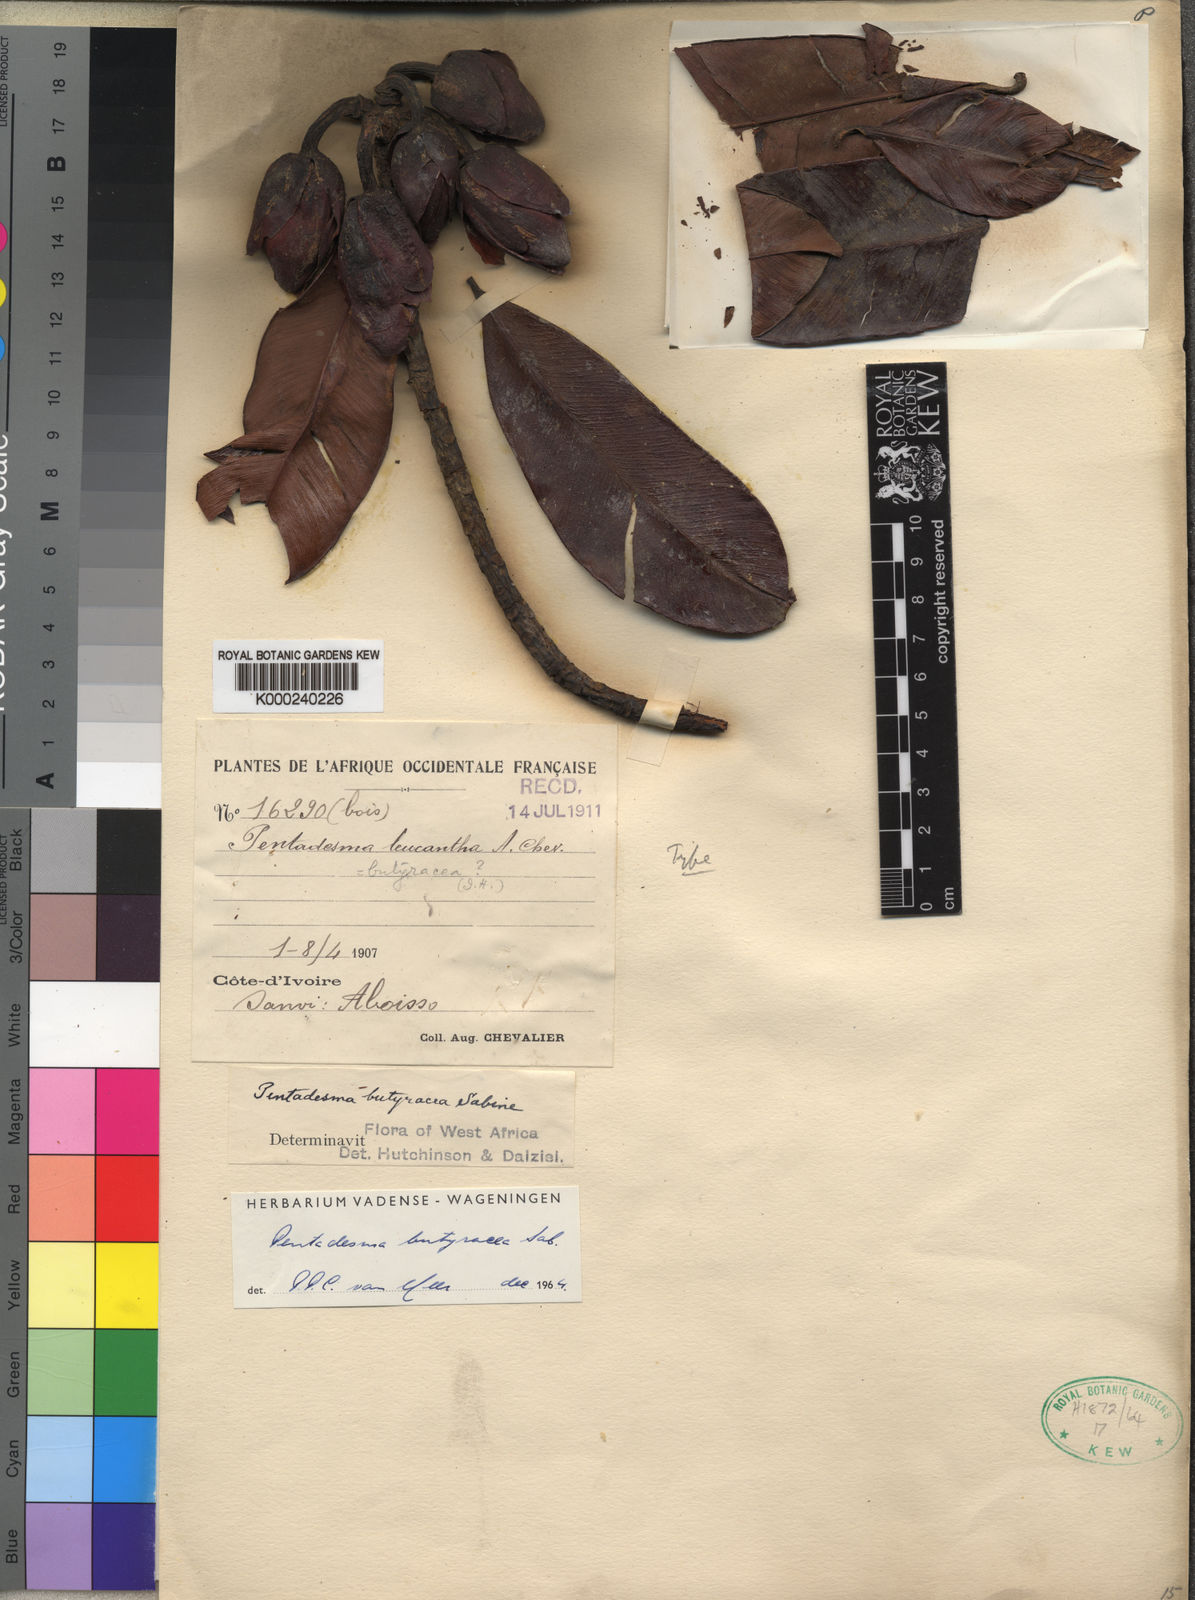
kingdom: Plantae
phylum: Tracheophyta
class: Magnoliopsida
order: Malpighiales
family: Clusiaceae
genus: Pentadesma
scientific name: Pentadesma butyracea
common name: Buttertree
